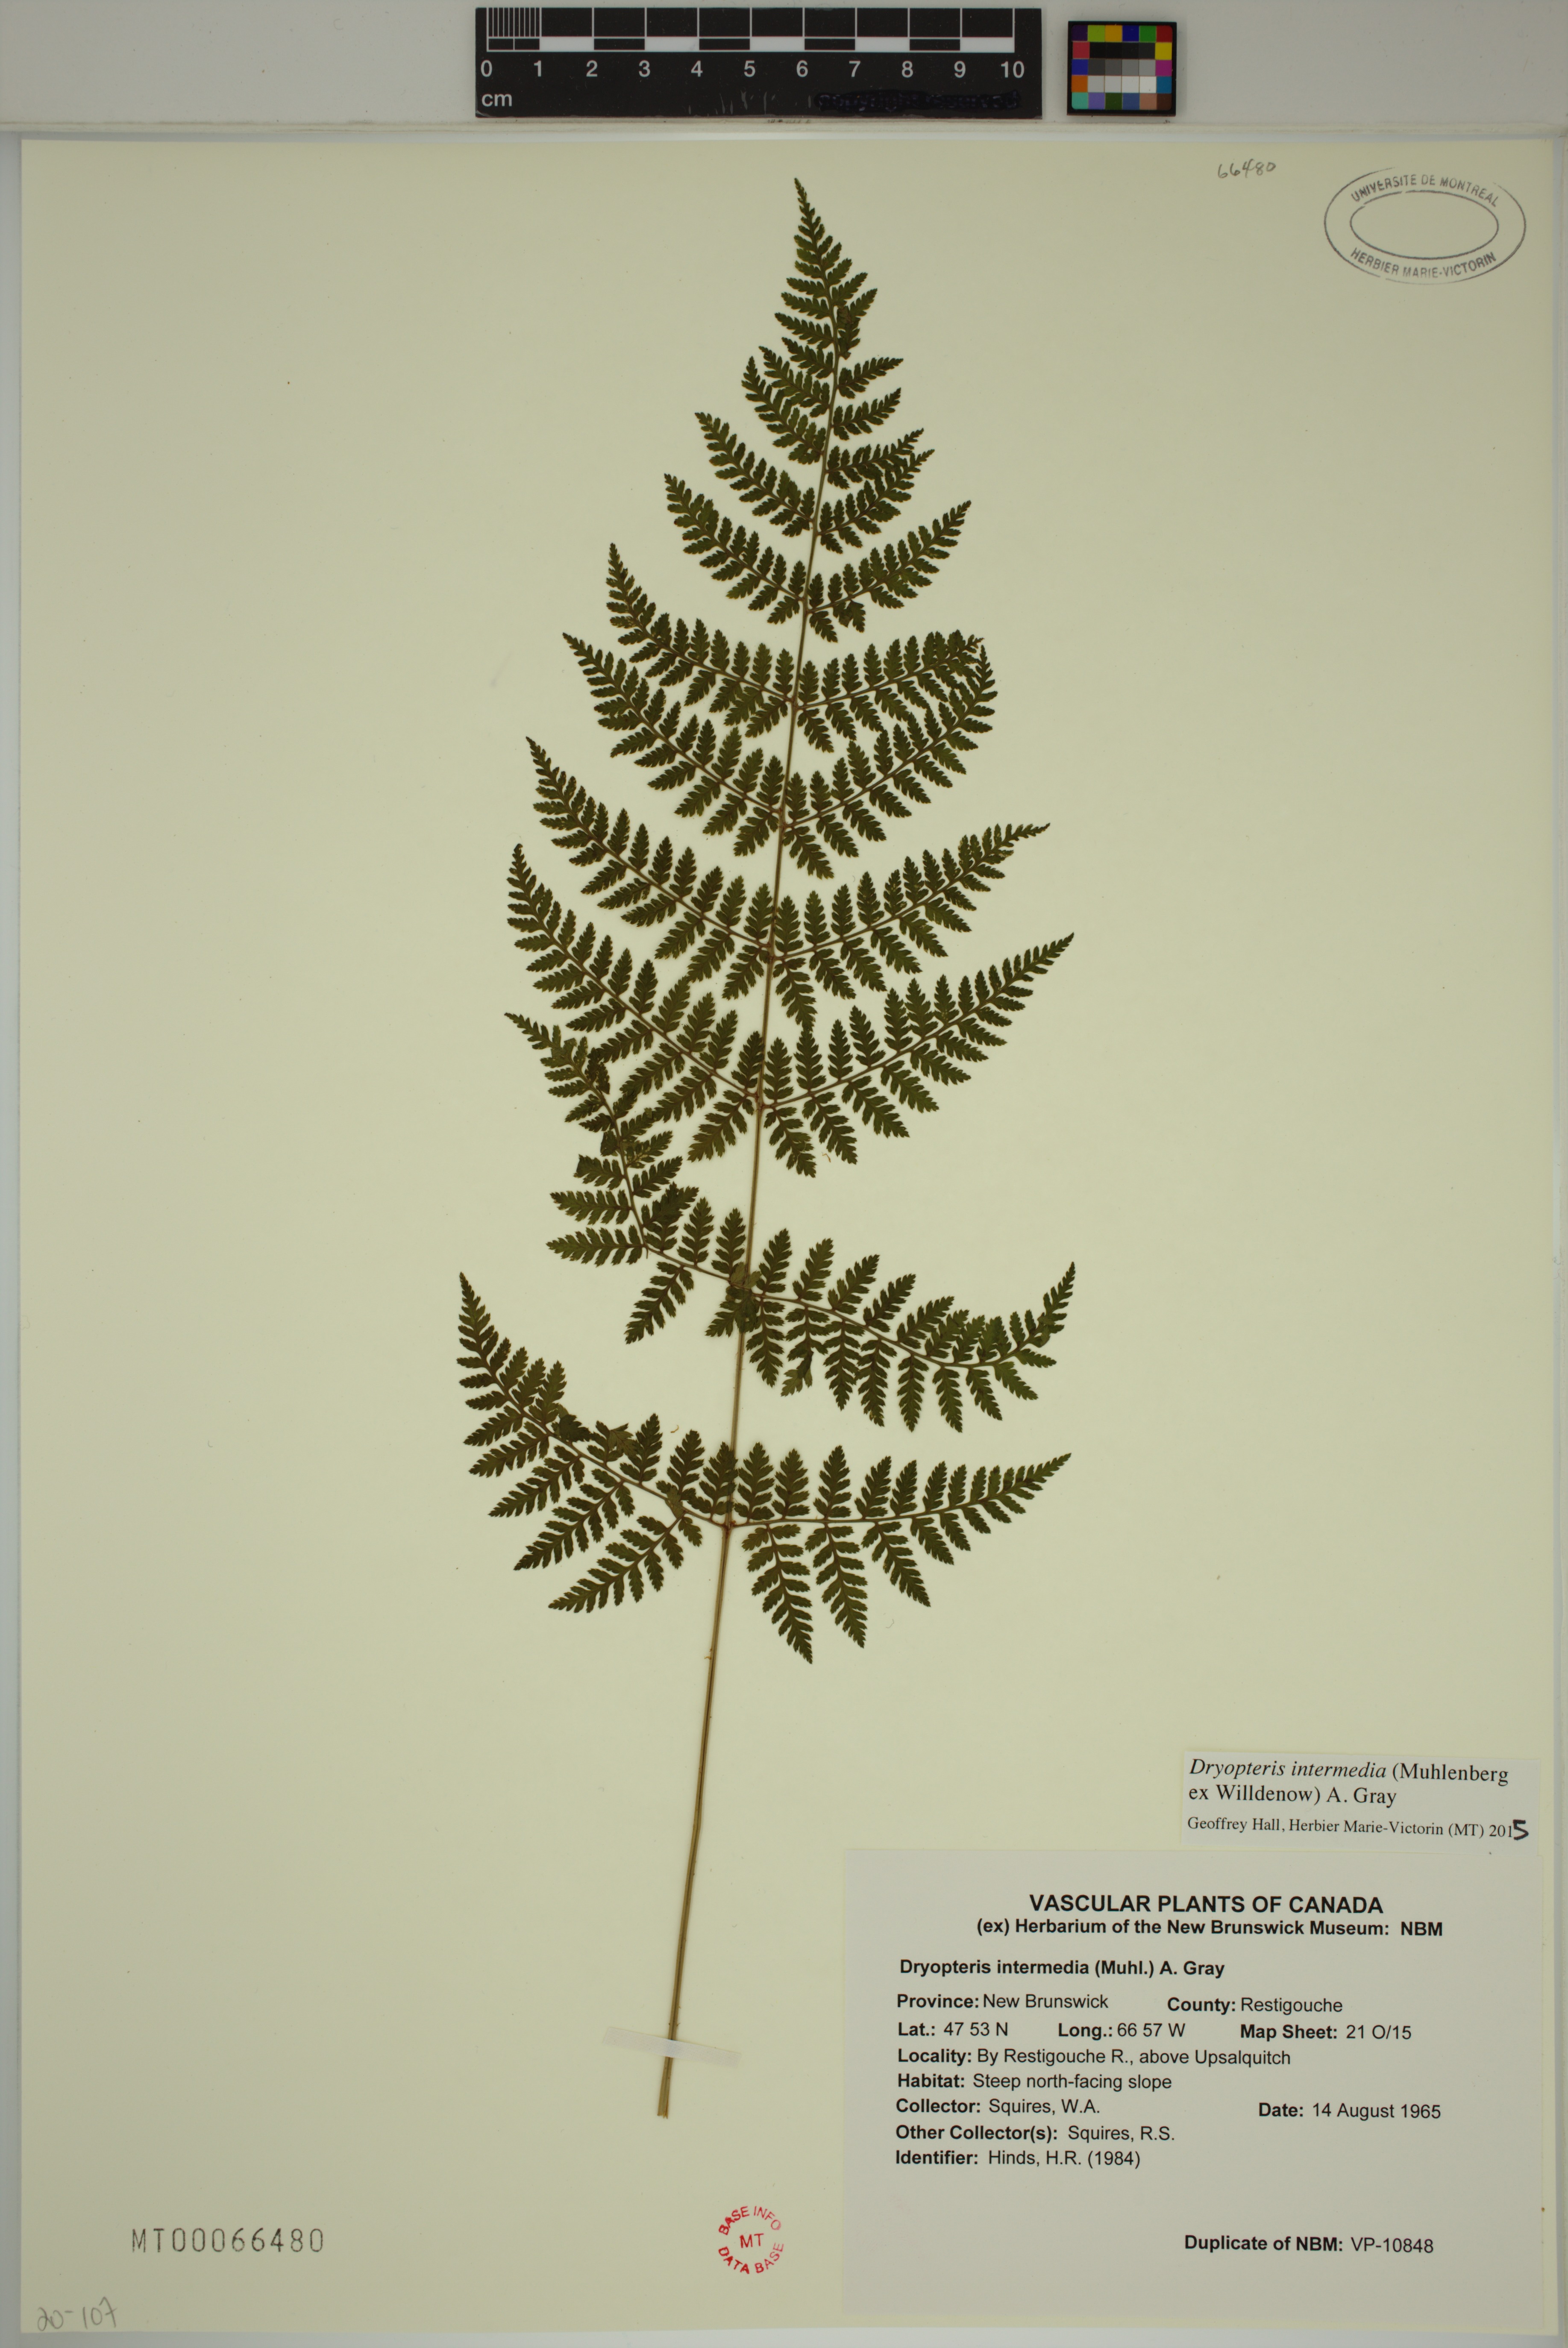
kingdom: Plantae
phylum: Tracheophyta
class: Polypodiopsida
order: Polypodiales
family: Dryopteridaceae
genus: Dryopteris
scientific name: Dryopteris intermedia
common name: Evergreen wood fern
